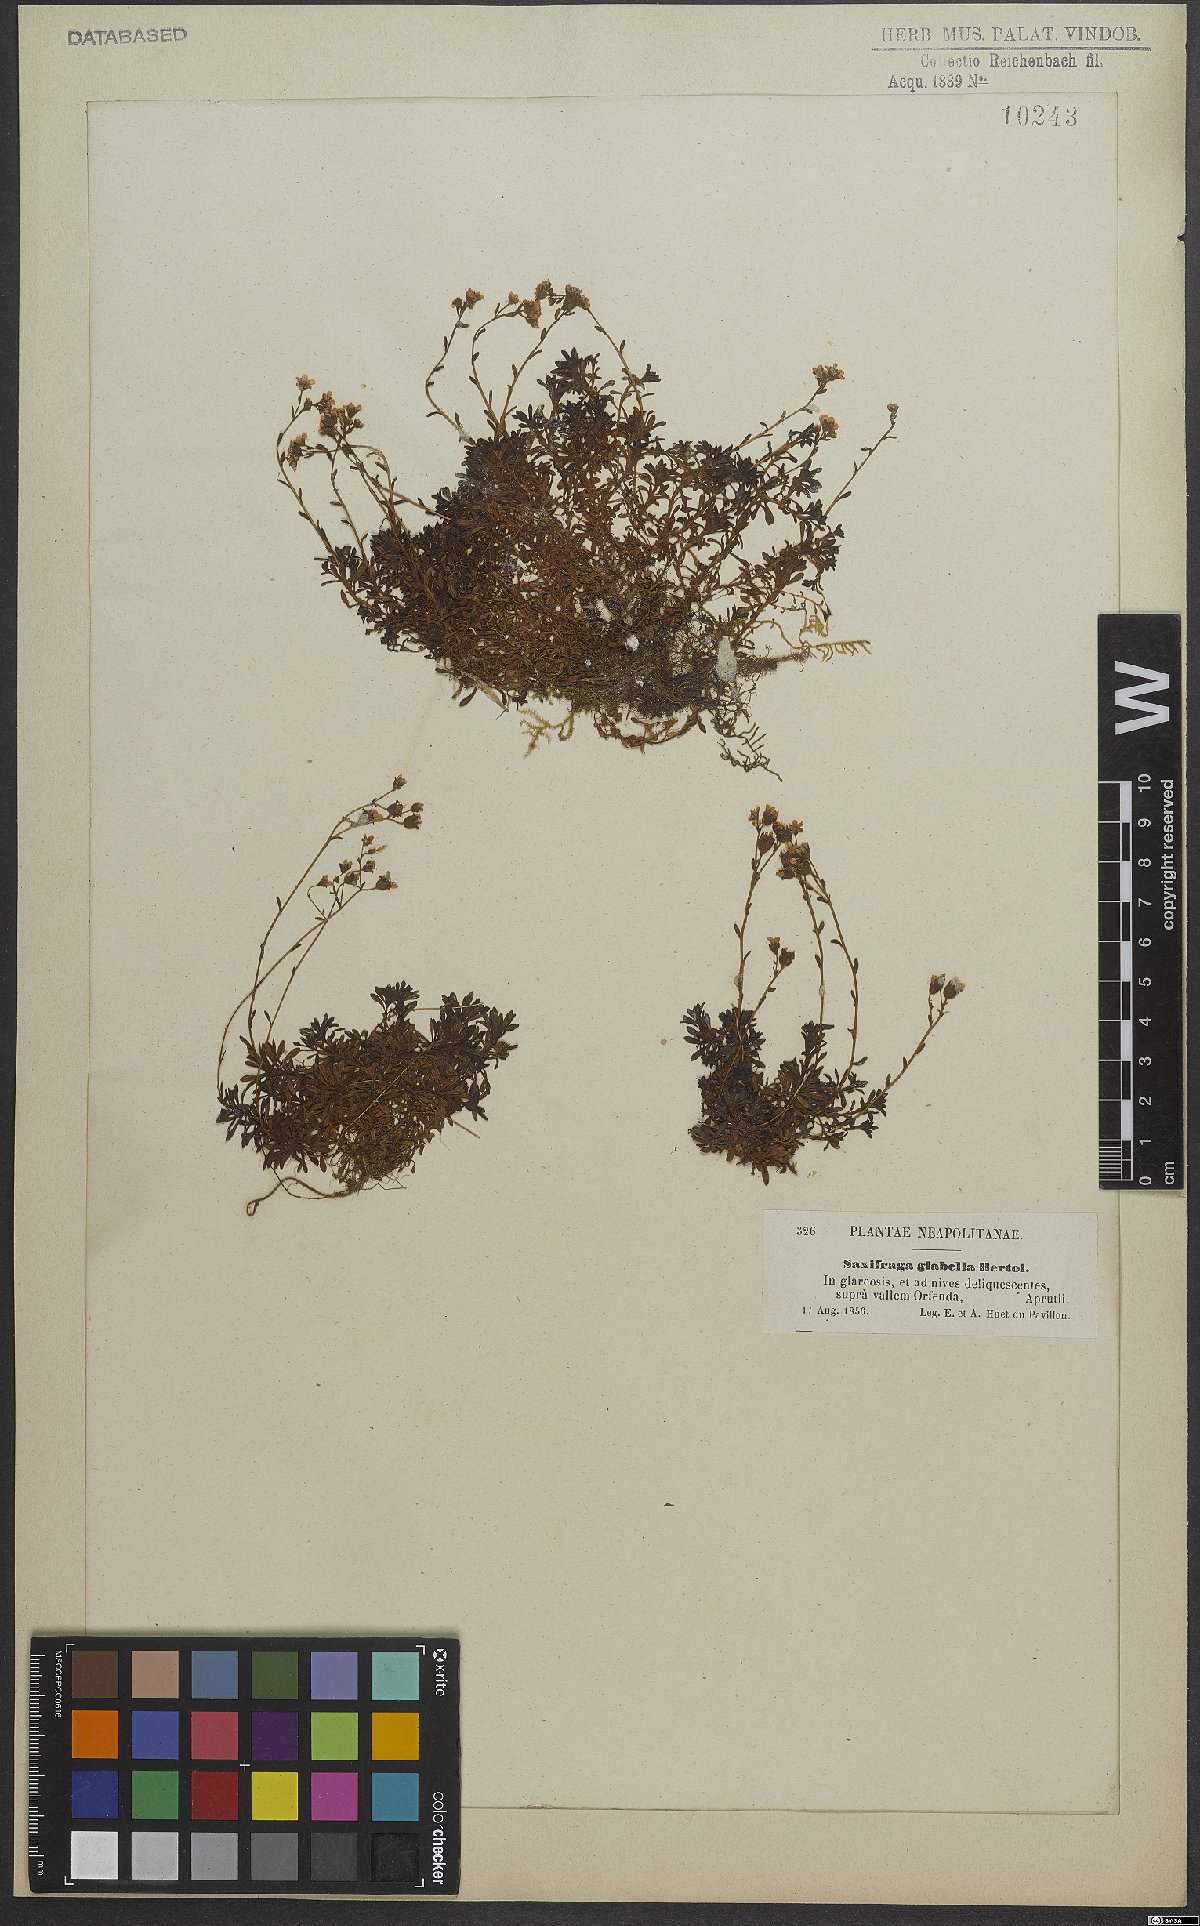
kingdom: Plantae
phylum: Tracheophyta
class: Magnoliopsida
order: Saxifragales
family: Saxifragaceae
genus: Saxifraga
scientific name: Saxifraga glabella
